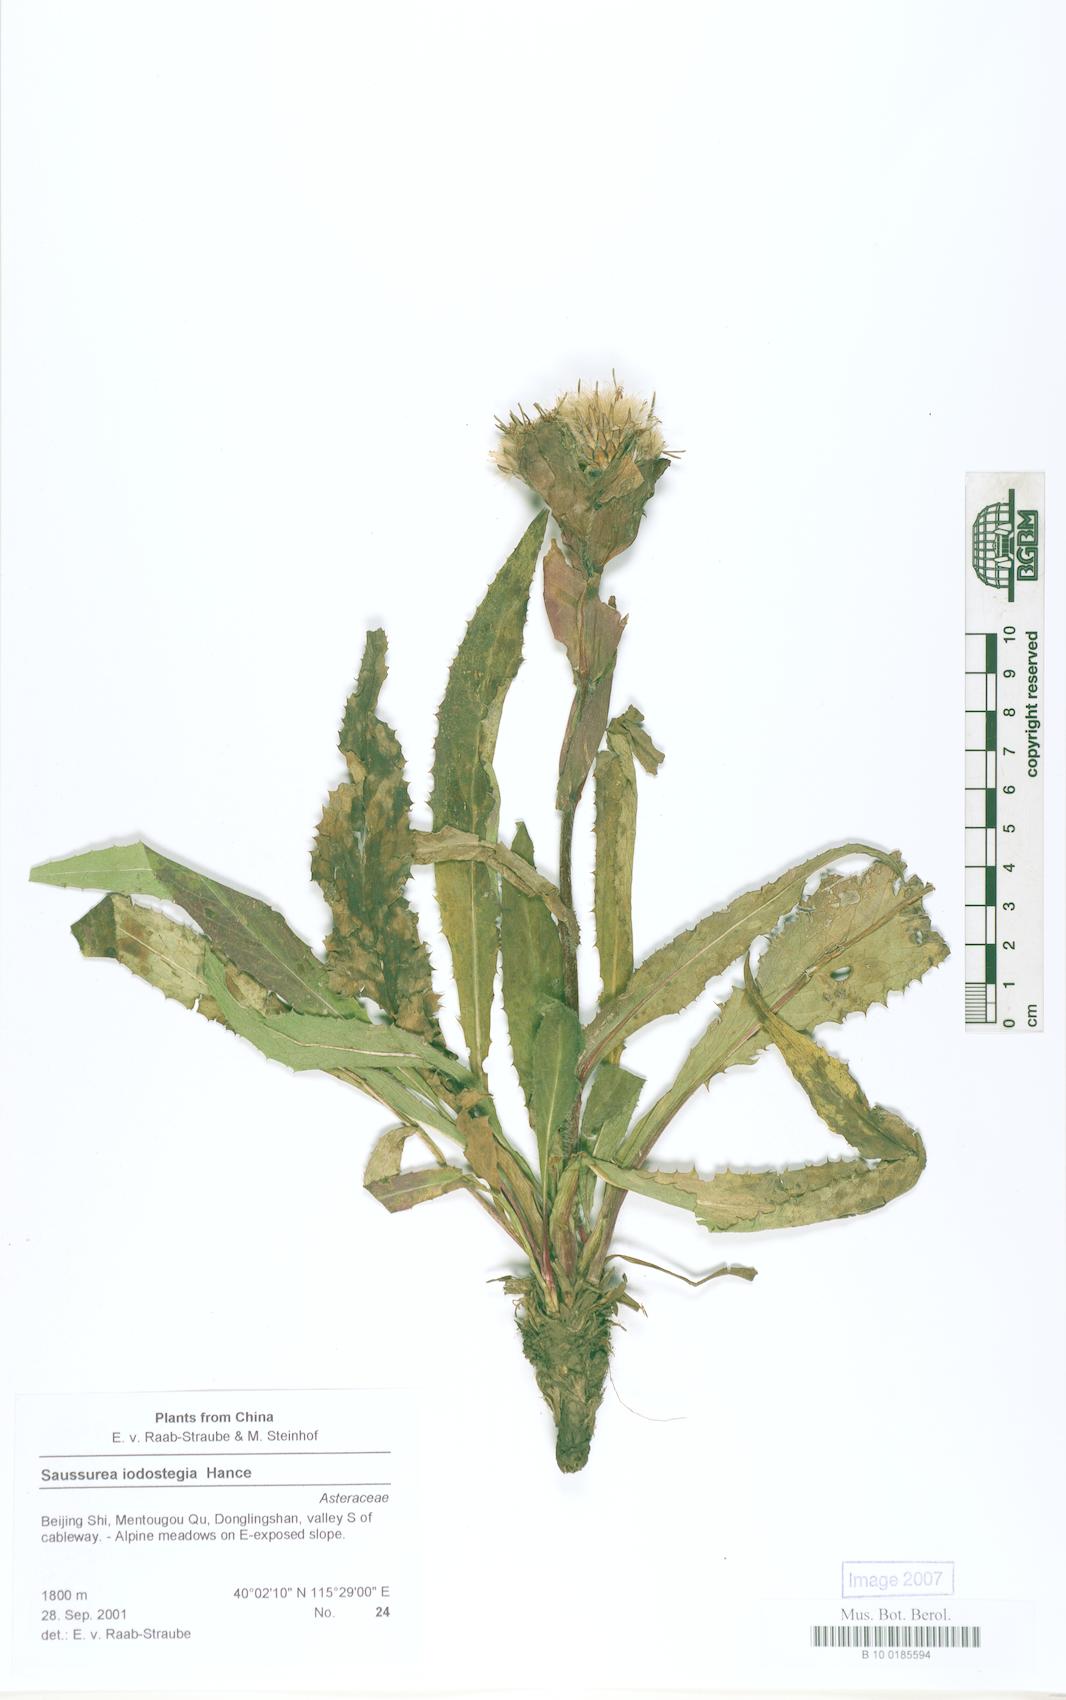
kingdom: Plantae
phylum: Tracheophyta
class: Magnoliopsida
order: Asterales
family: Asteraceae
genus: Saussurea
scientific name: Saussurea iodostegia
